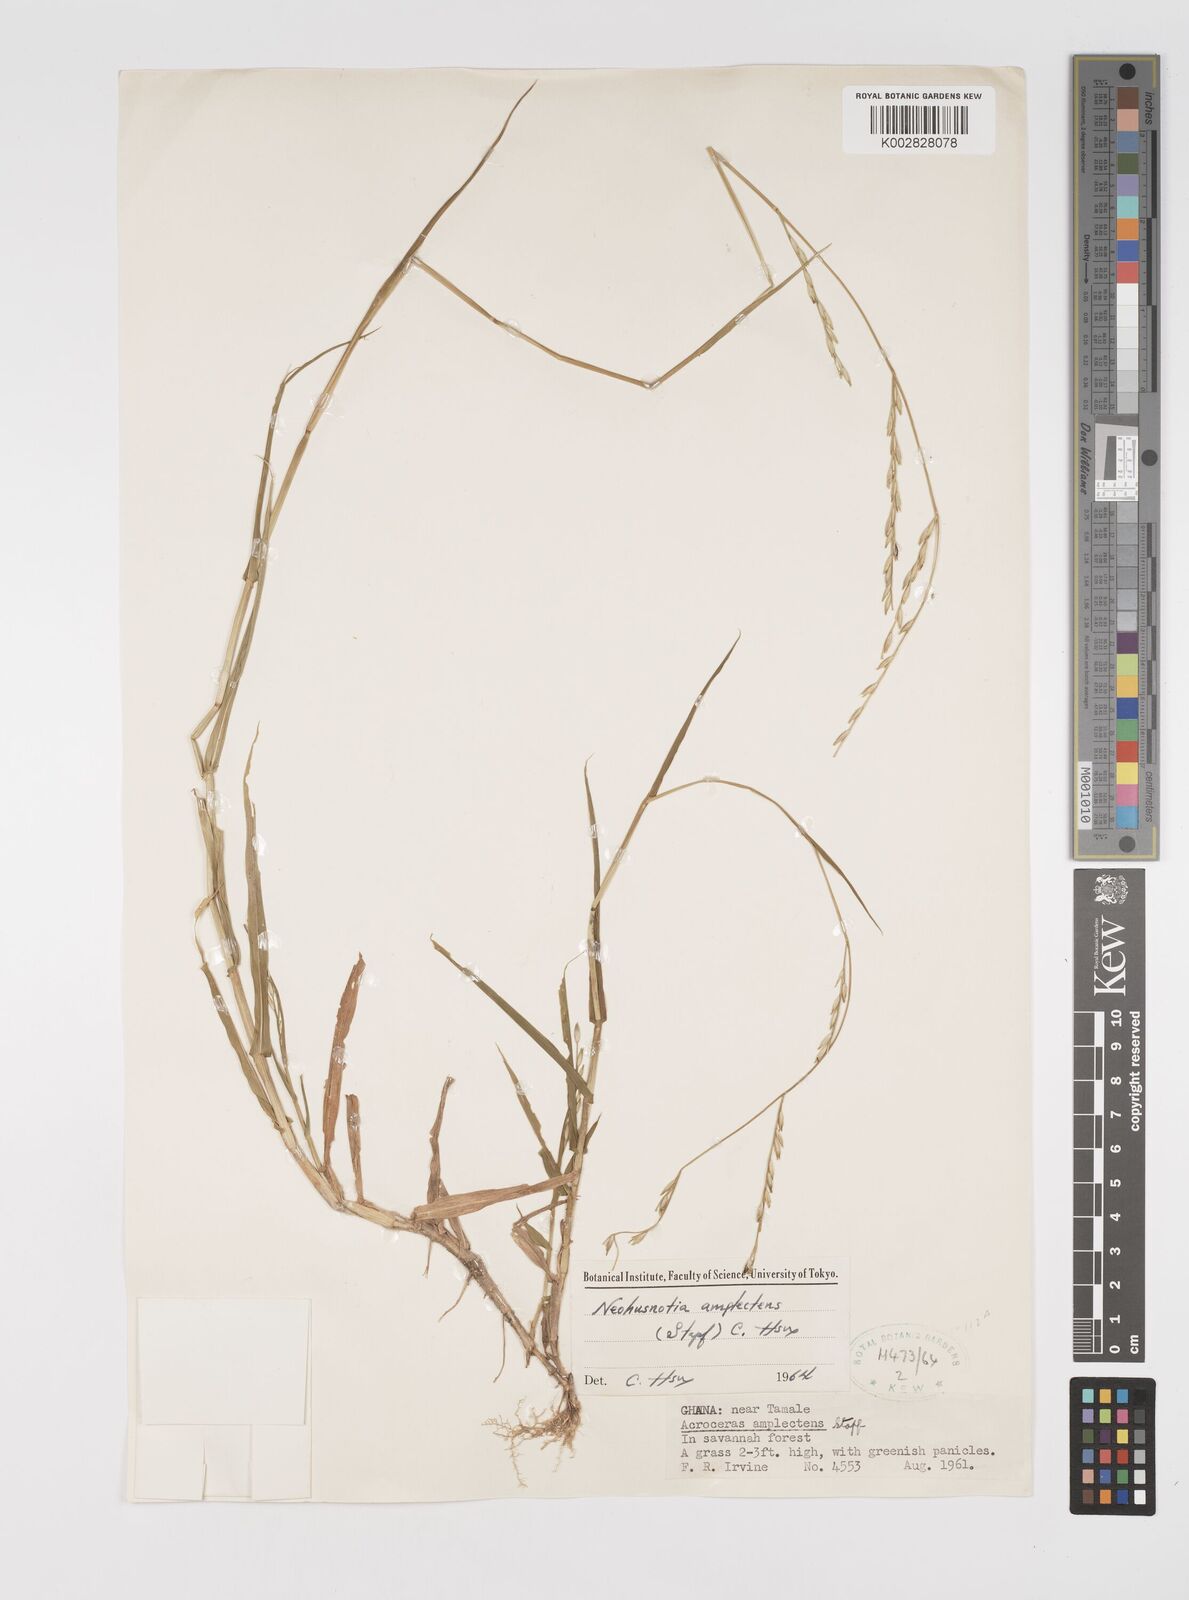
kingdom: Plantae
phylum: Tracheophyta
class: Liliopsida
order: Poales
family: Poaceae
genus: Acroceras
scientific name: Acroceras amplectens
